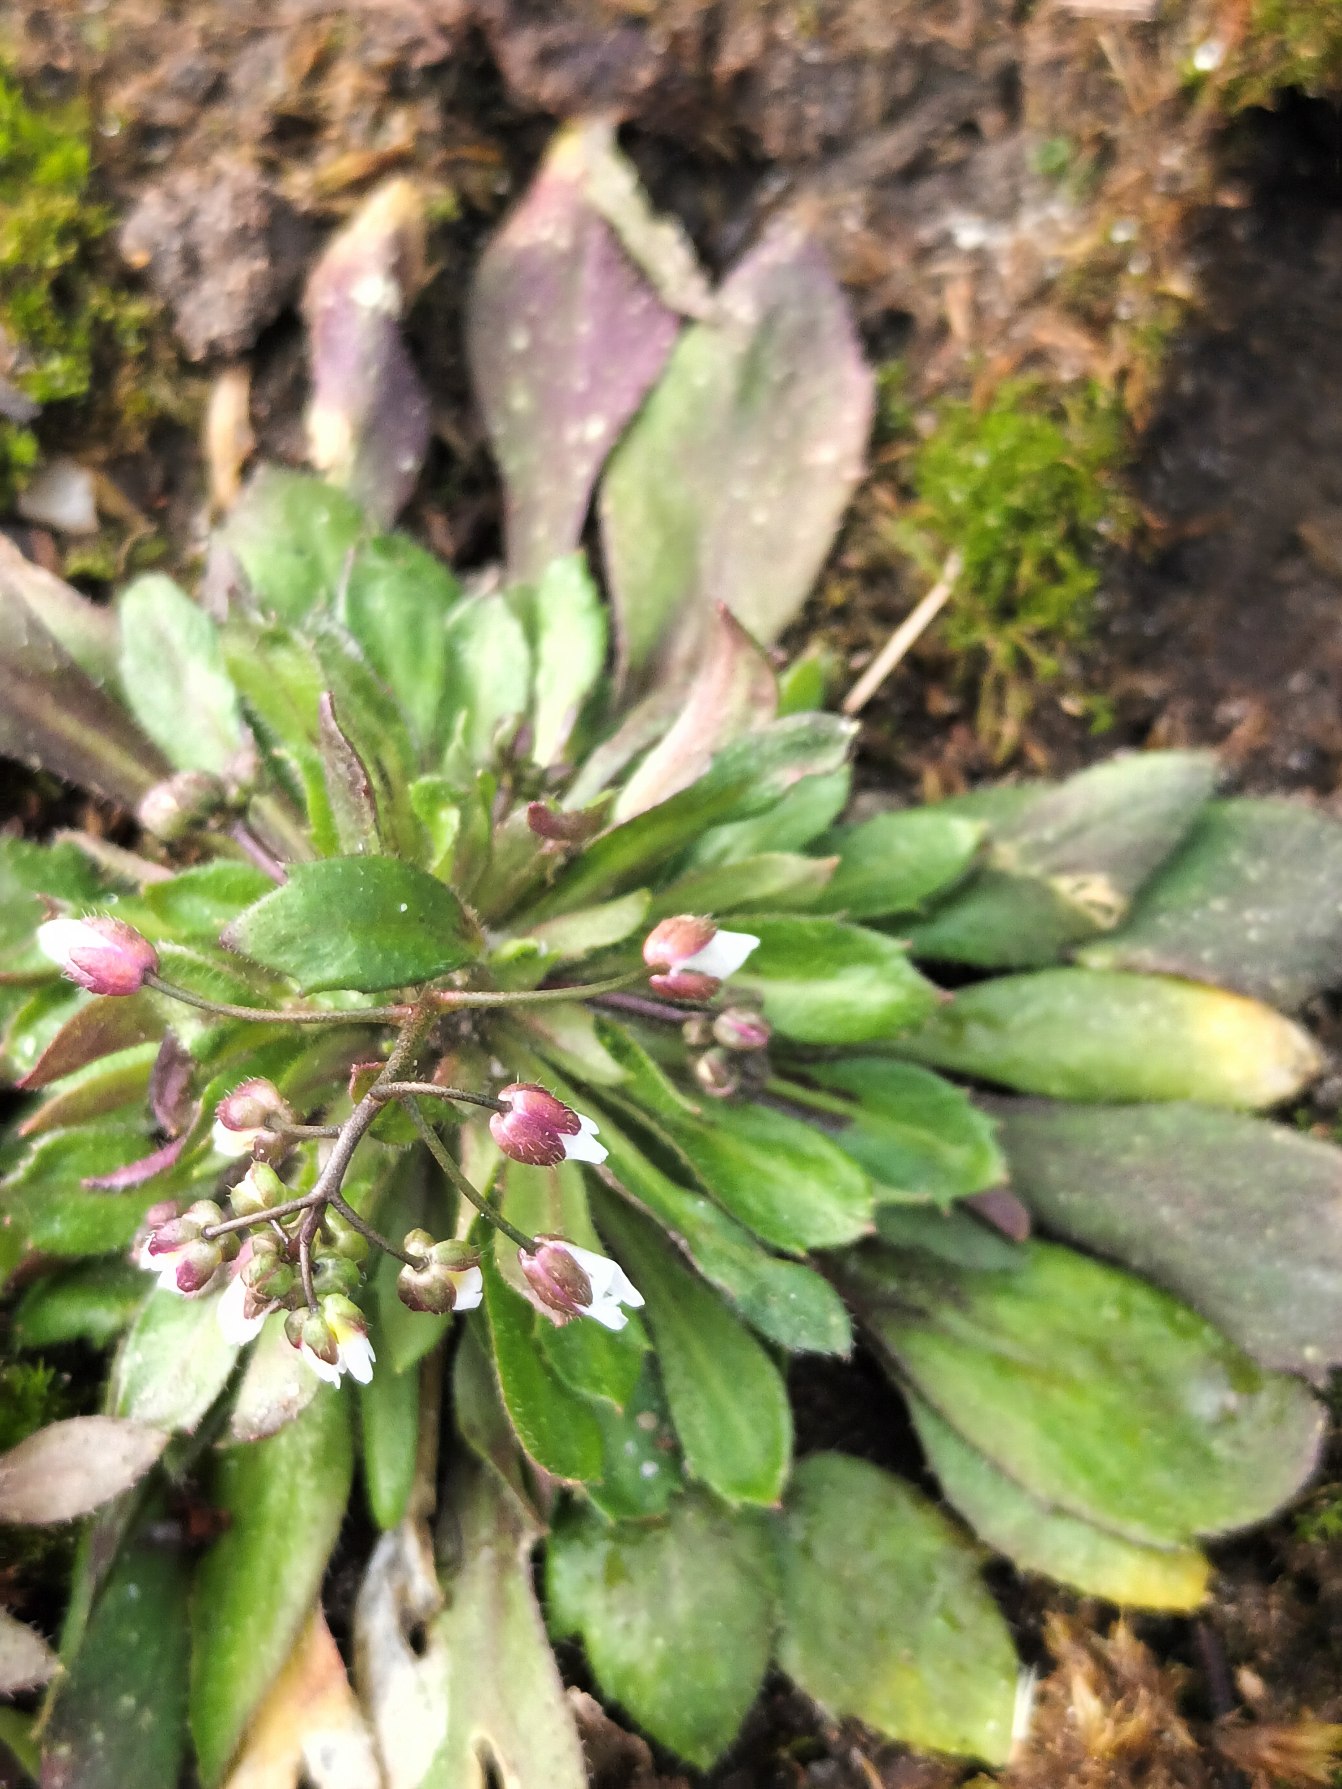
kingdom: Plantae
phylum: Tracheophyta
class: Magnoliopsida
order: Brassicales
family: Brassicaceae
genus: Draba
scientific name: Draba verna
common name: Vår-gæslingeblomst
